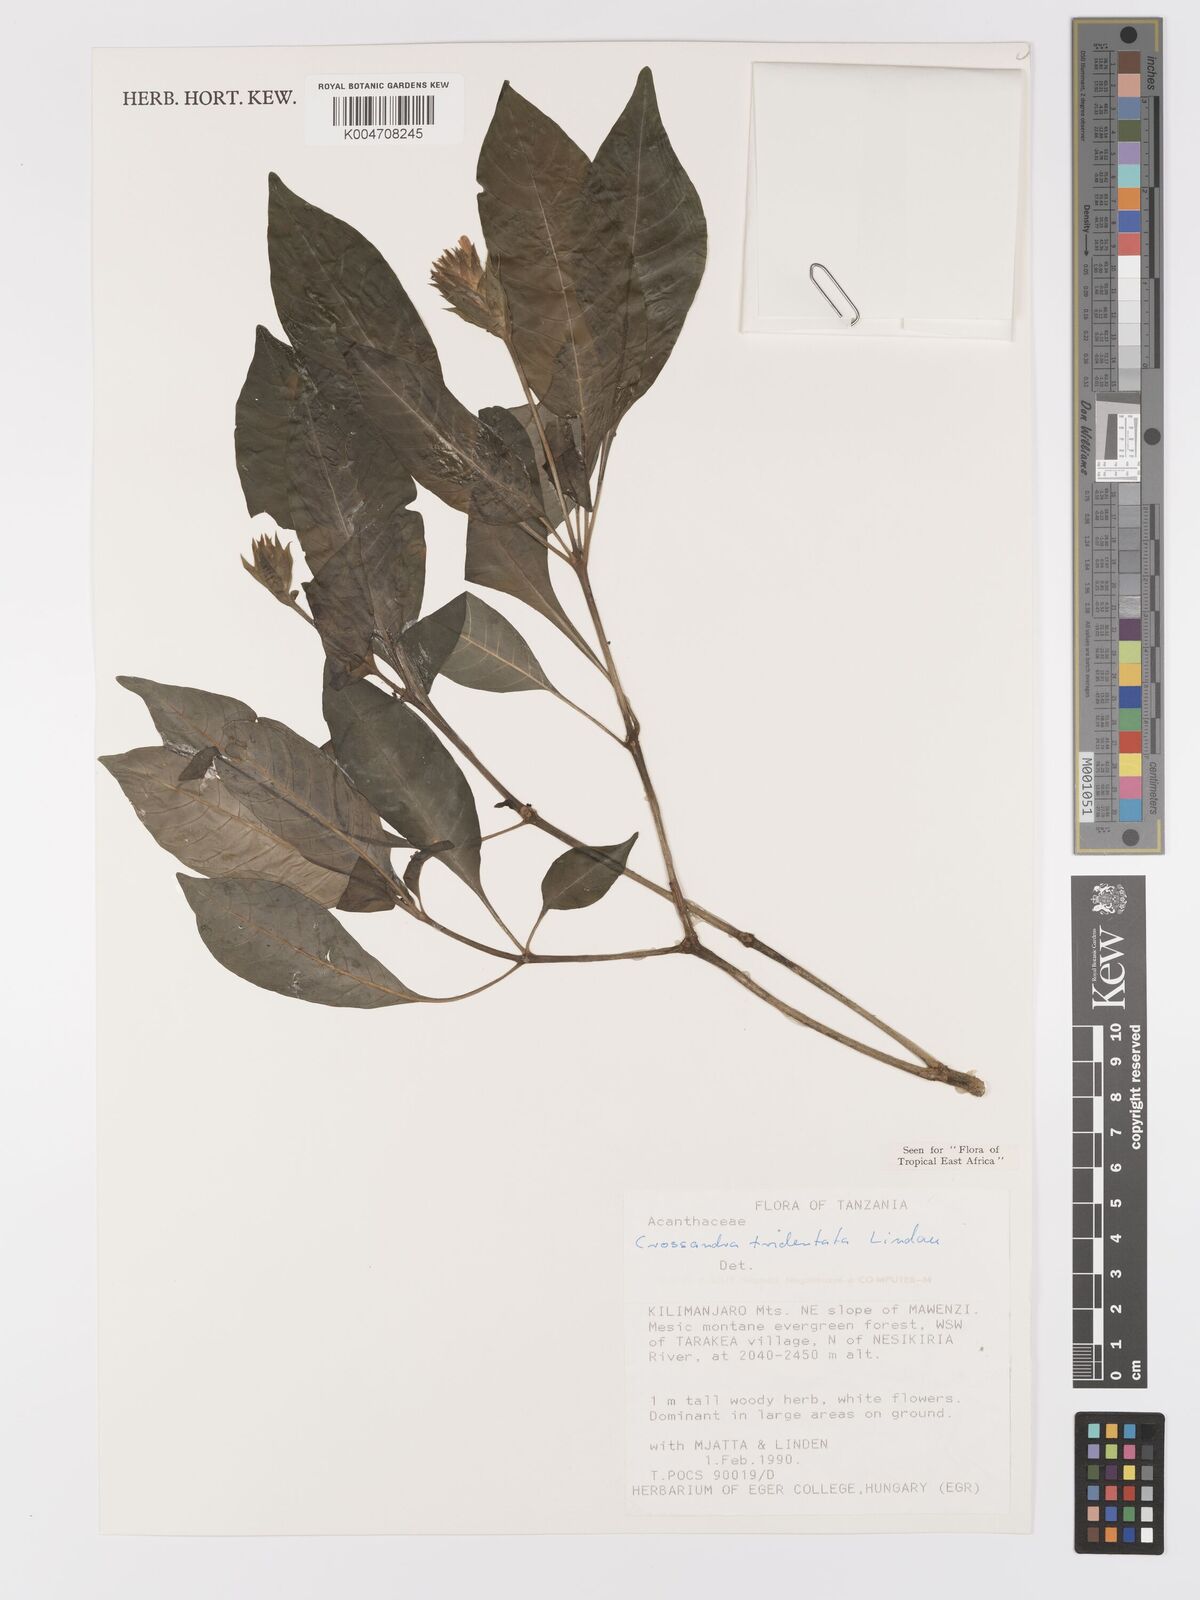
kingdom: Plantae
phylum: Tracheophyta
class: Magnoliopsida
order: Lamiales
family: Acanthaceae
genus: Crossandra
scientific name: Crossandra tridentata
